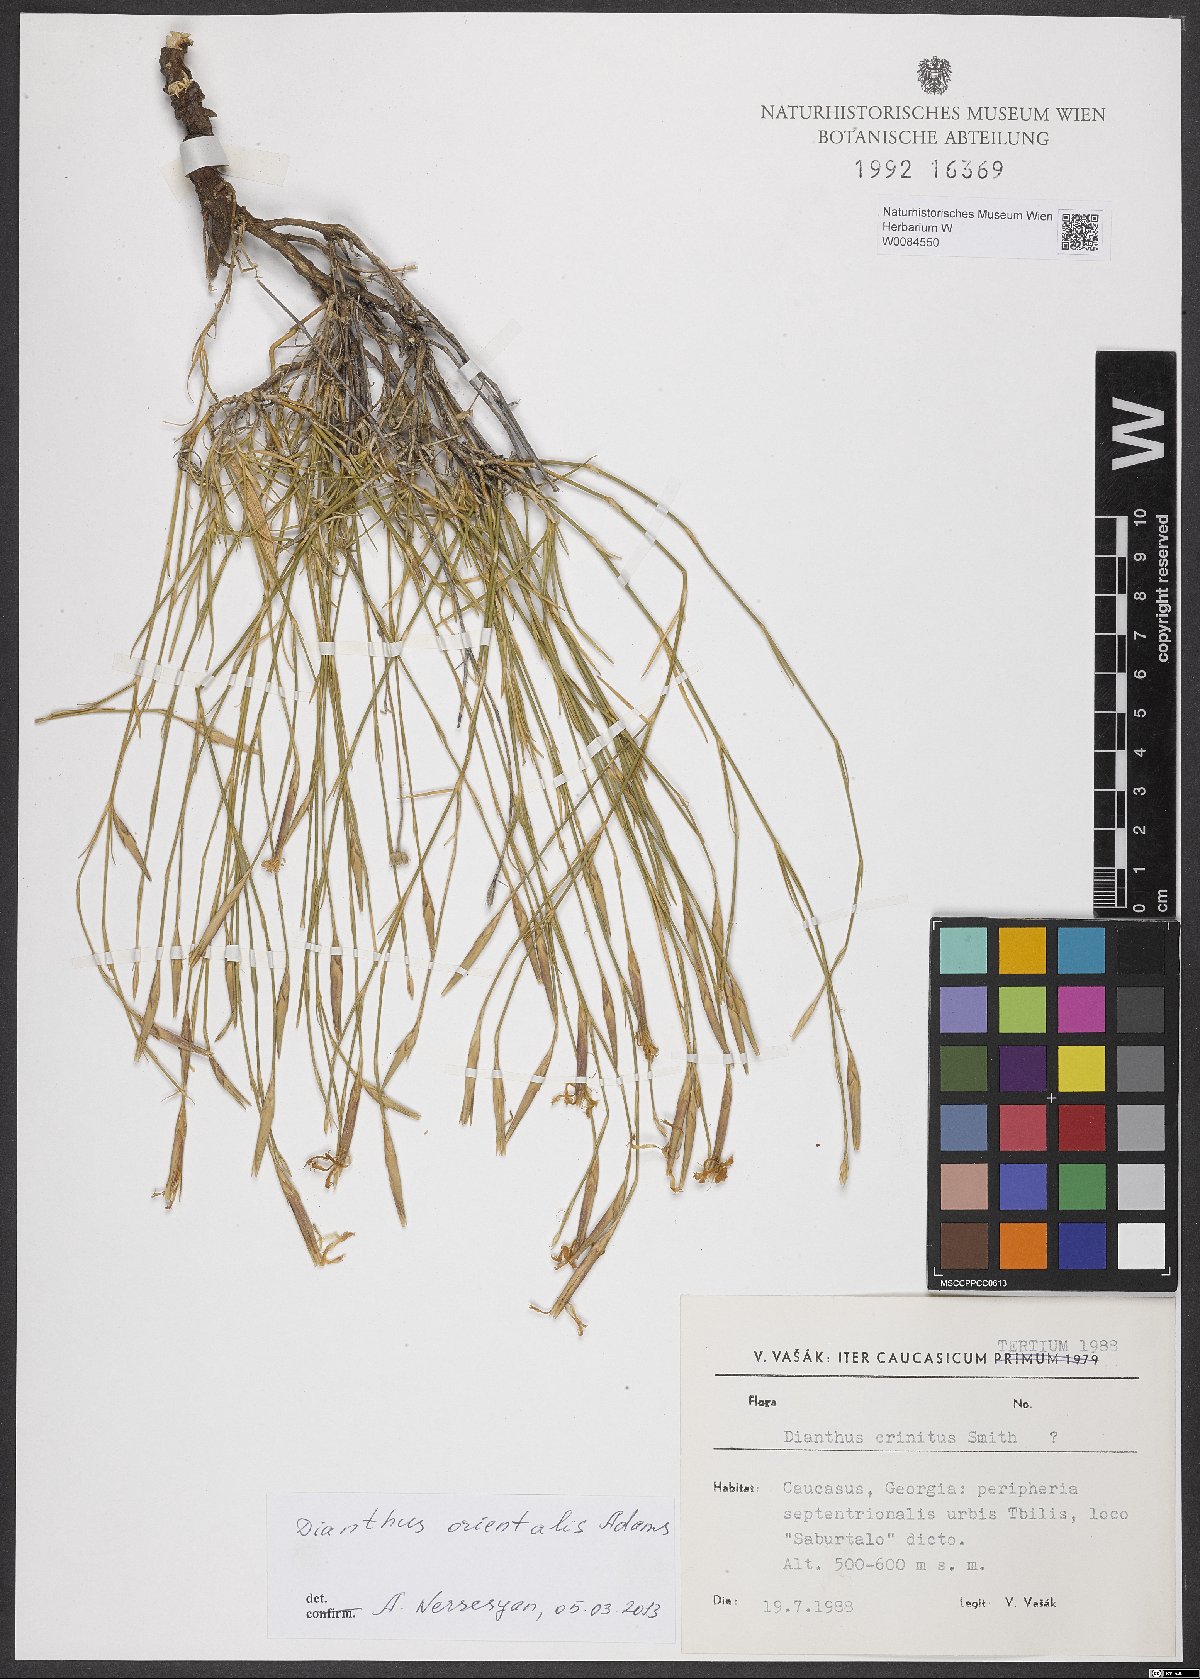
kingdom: Plantae
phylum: Tracheophyta
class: Magnoliopsida
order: Caryophyllales
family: Caryophyllaceae
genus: Dianthus
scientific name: Dianthus orientalis
